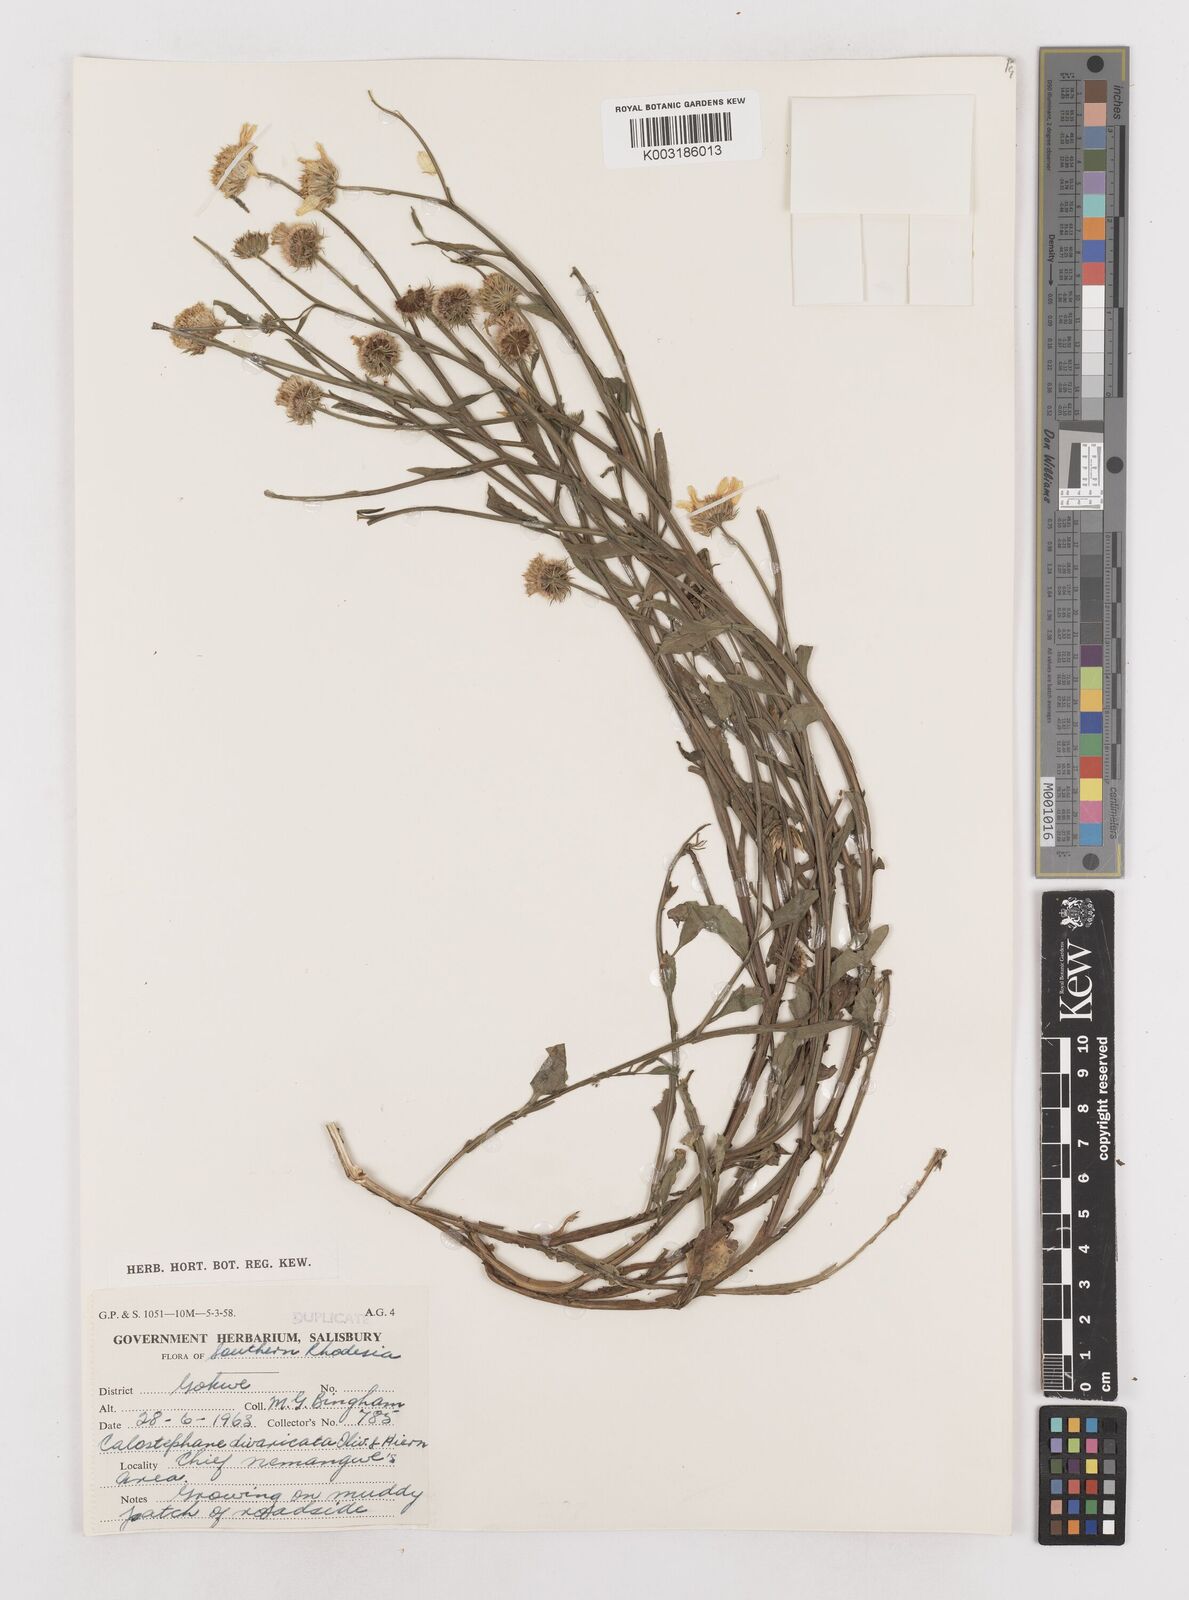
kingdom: Plantae
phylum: Tracheophyta
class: Magnoliopsida
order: Asterales
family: Asteraceae
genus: Calostephane
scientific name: Calostephane divaricata
